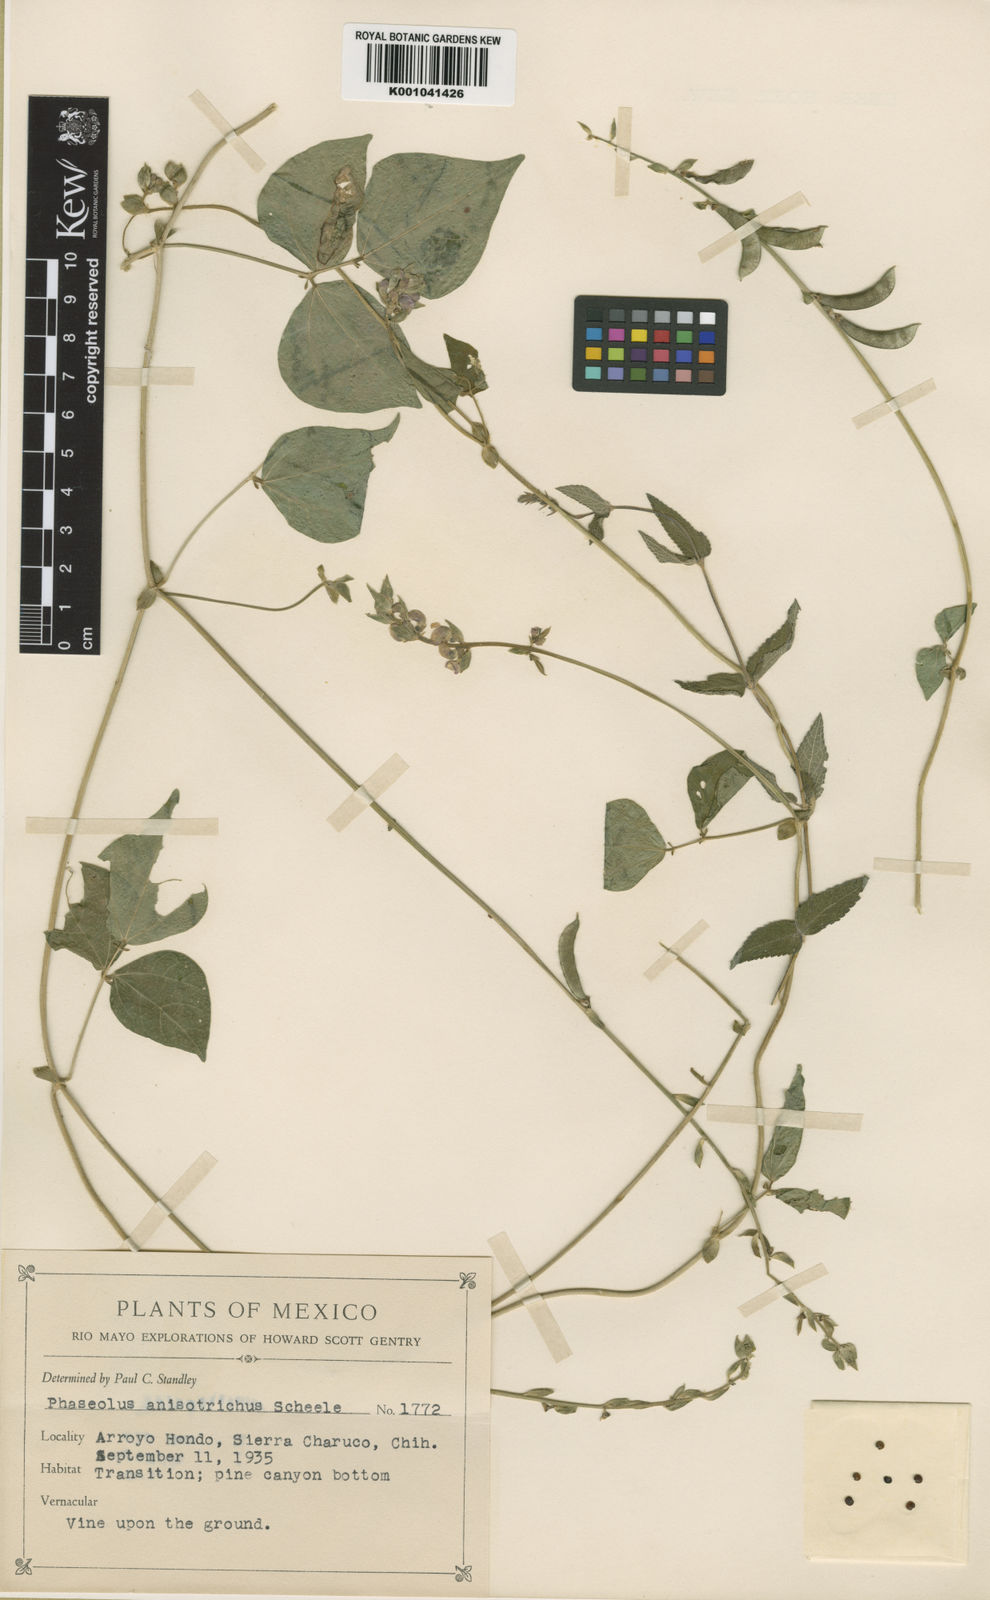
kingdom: Plantae
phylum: Tracheophyta
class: Magnoliopsida
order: Fabales
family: Fabaceae
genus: Phaseolus
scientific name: Phaseolus
